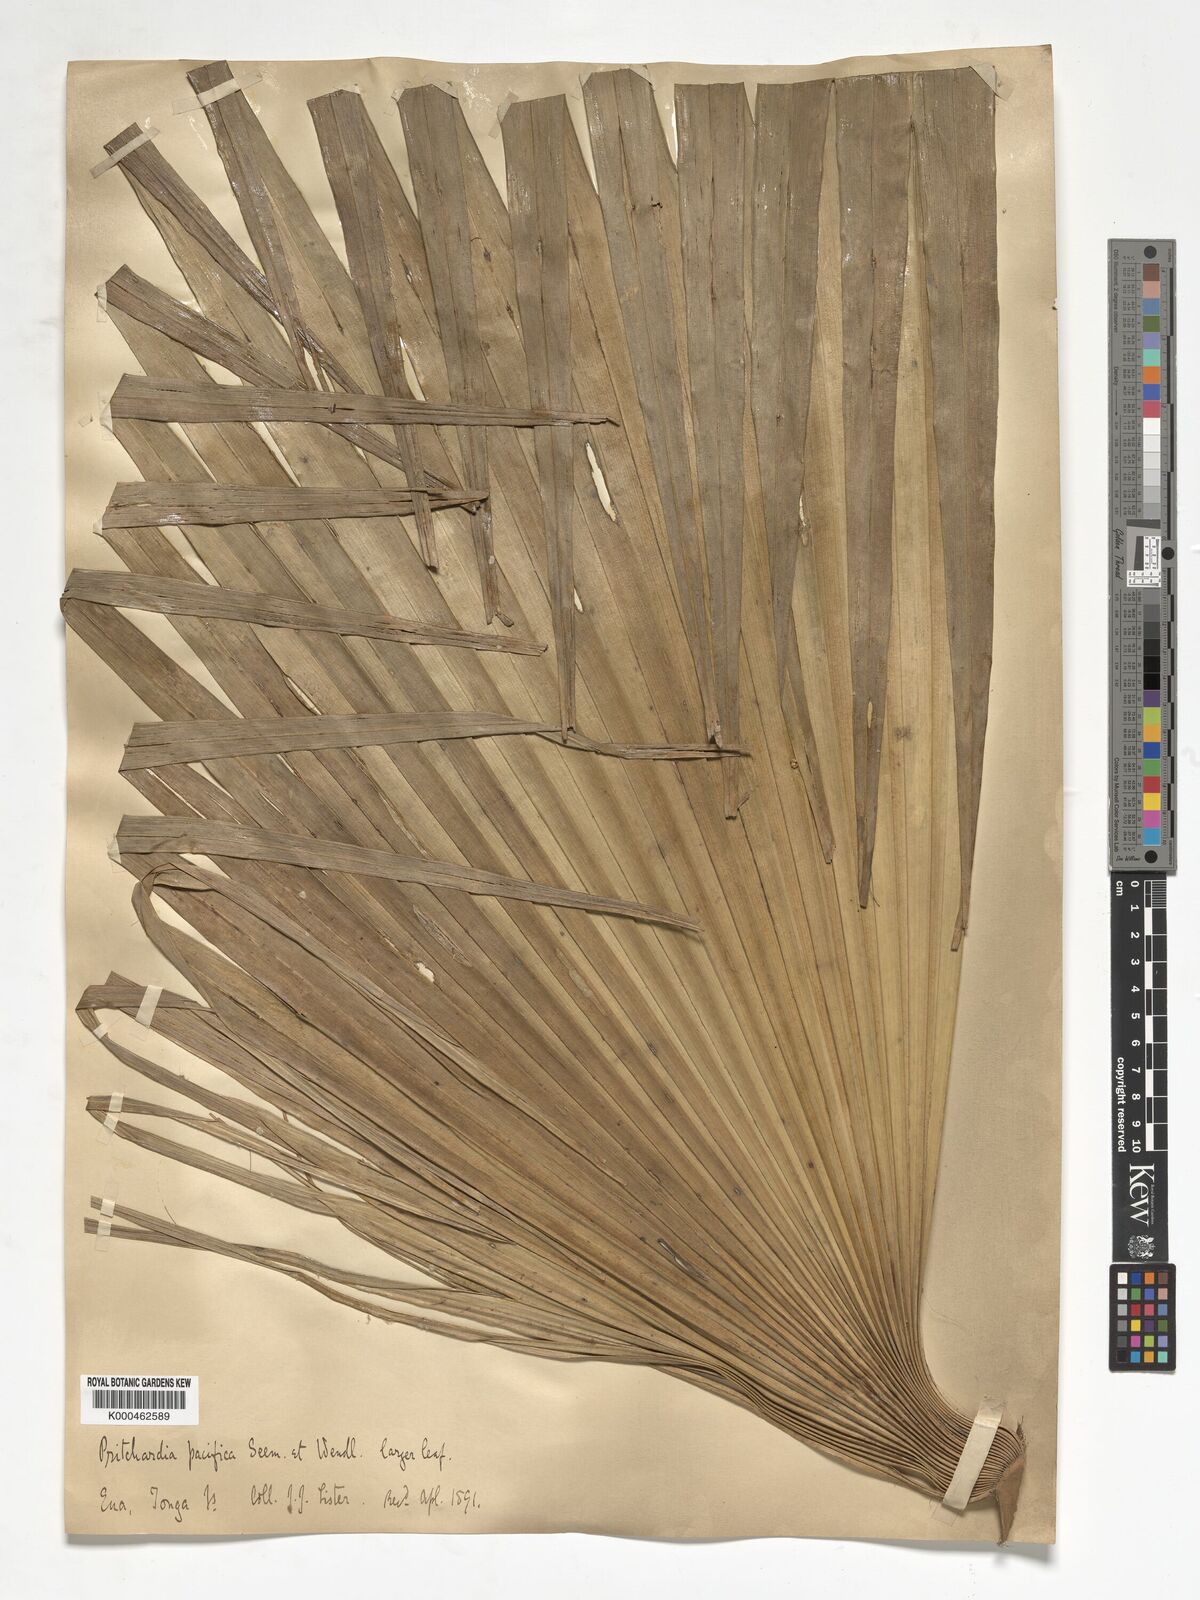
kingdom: Plantae
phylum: Tracheophyta
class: Liliopsida
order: Arecales
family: Arecaceae
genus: Pritchardia
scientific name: Pritchardia pacifica
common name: Fiji fan palm
